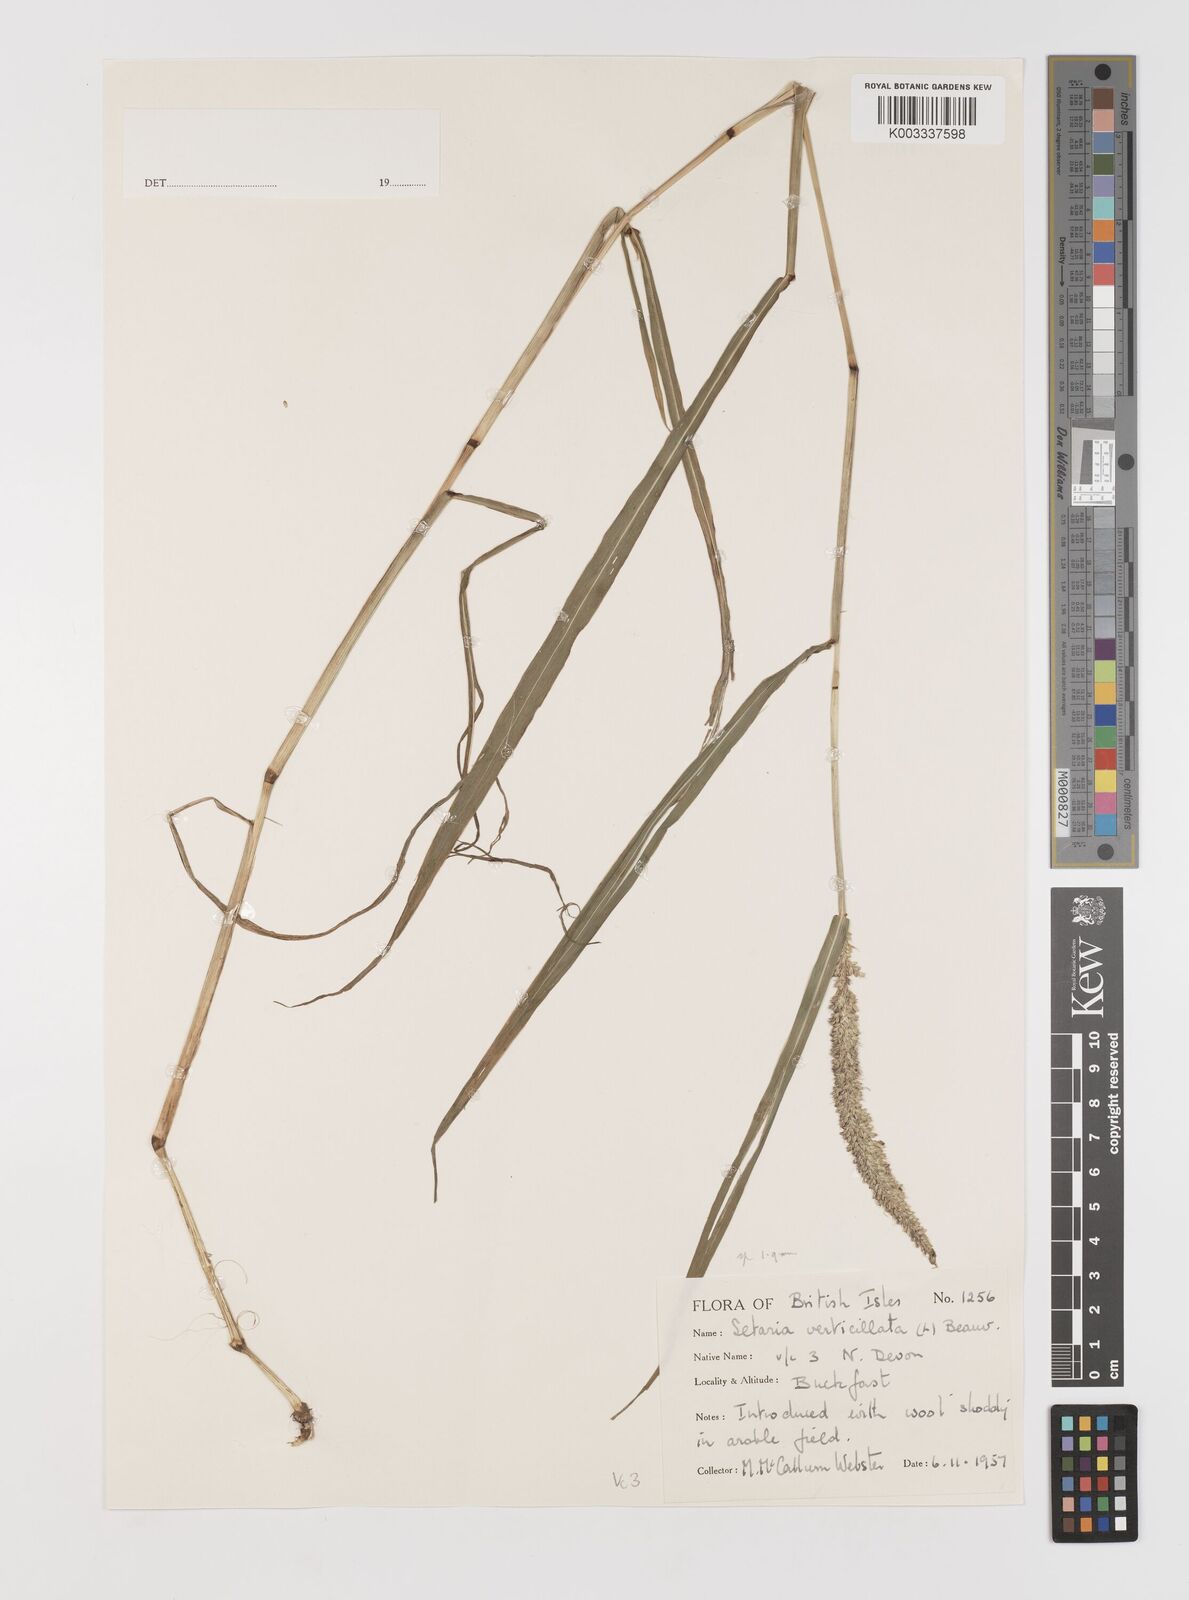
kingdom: Plantae
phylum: Tracheophyta
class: Liliopsida
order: Poales
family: Poaceae
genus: Setaria
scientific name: Setaria verticillata
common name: Hooked bristlegrass
